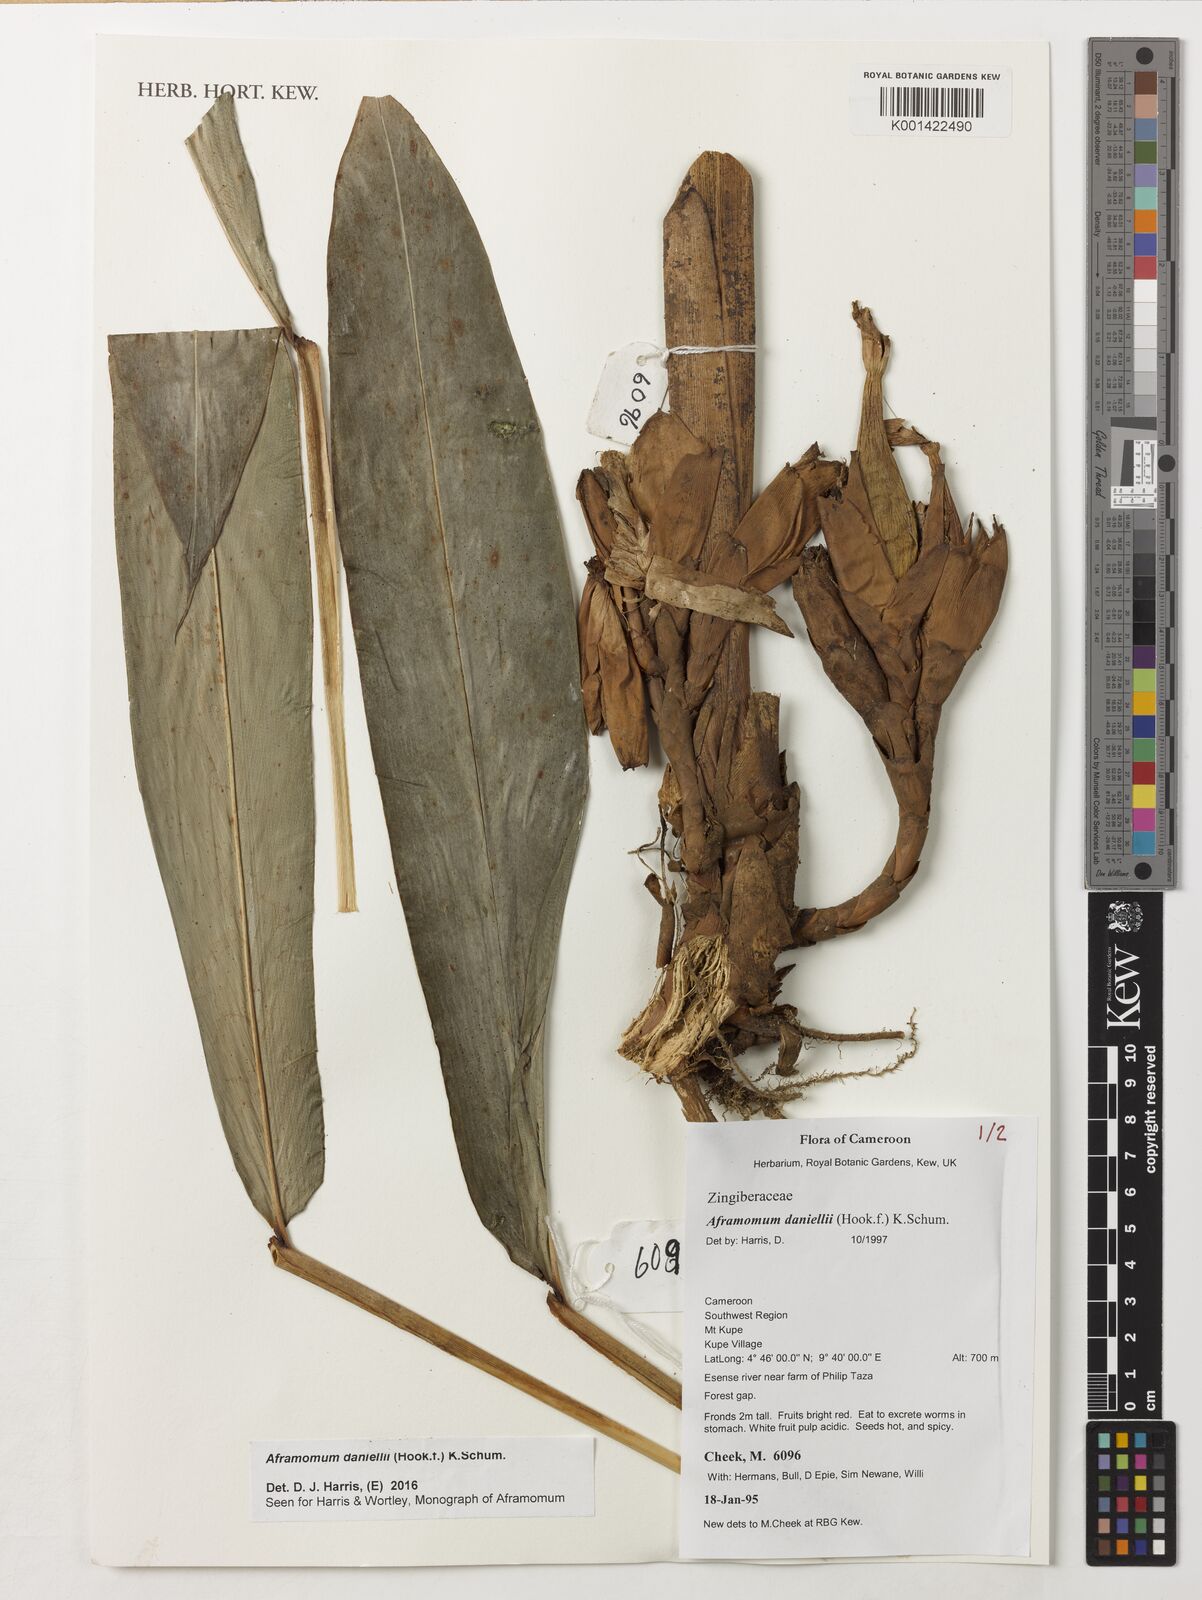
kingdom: Plantae
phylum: Tracheophyta
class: Liliopsida
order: Zingiberales
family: Zingiberaceae
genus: Aframomum
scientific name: Aframomum daniellii
